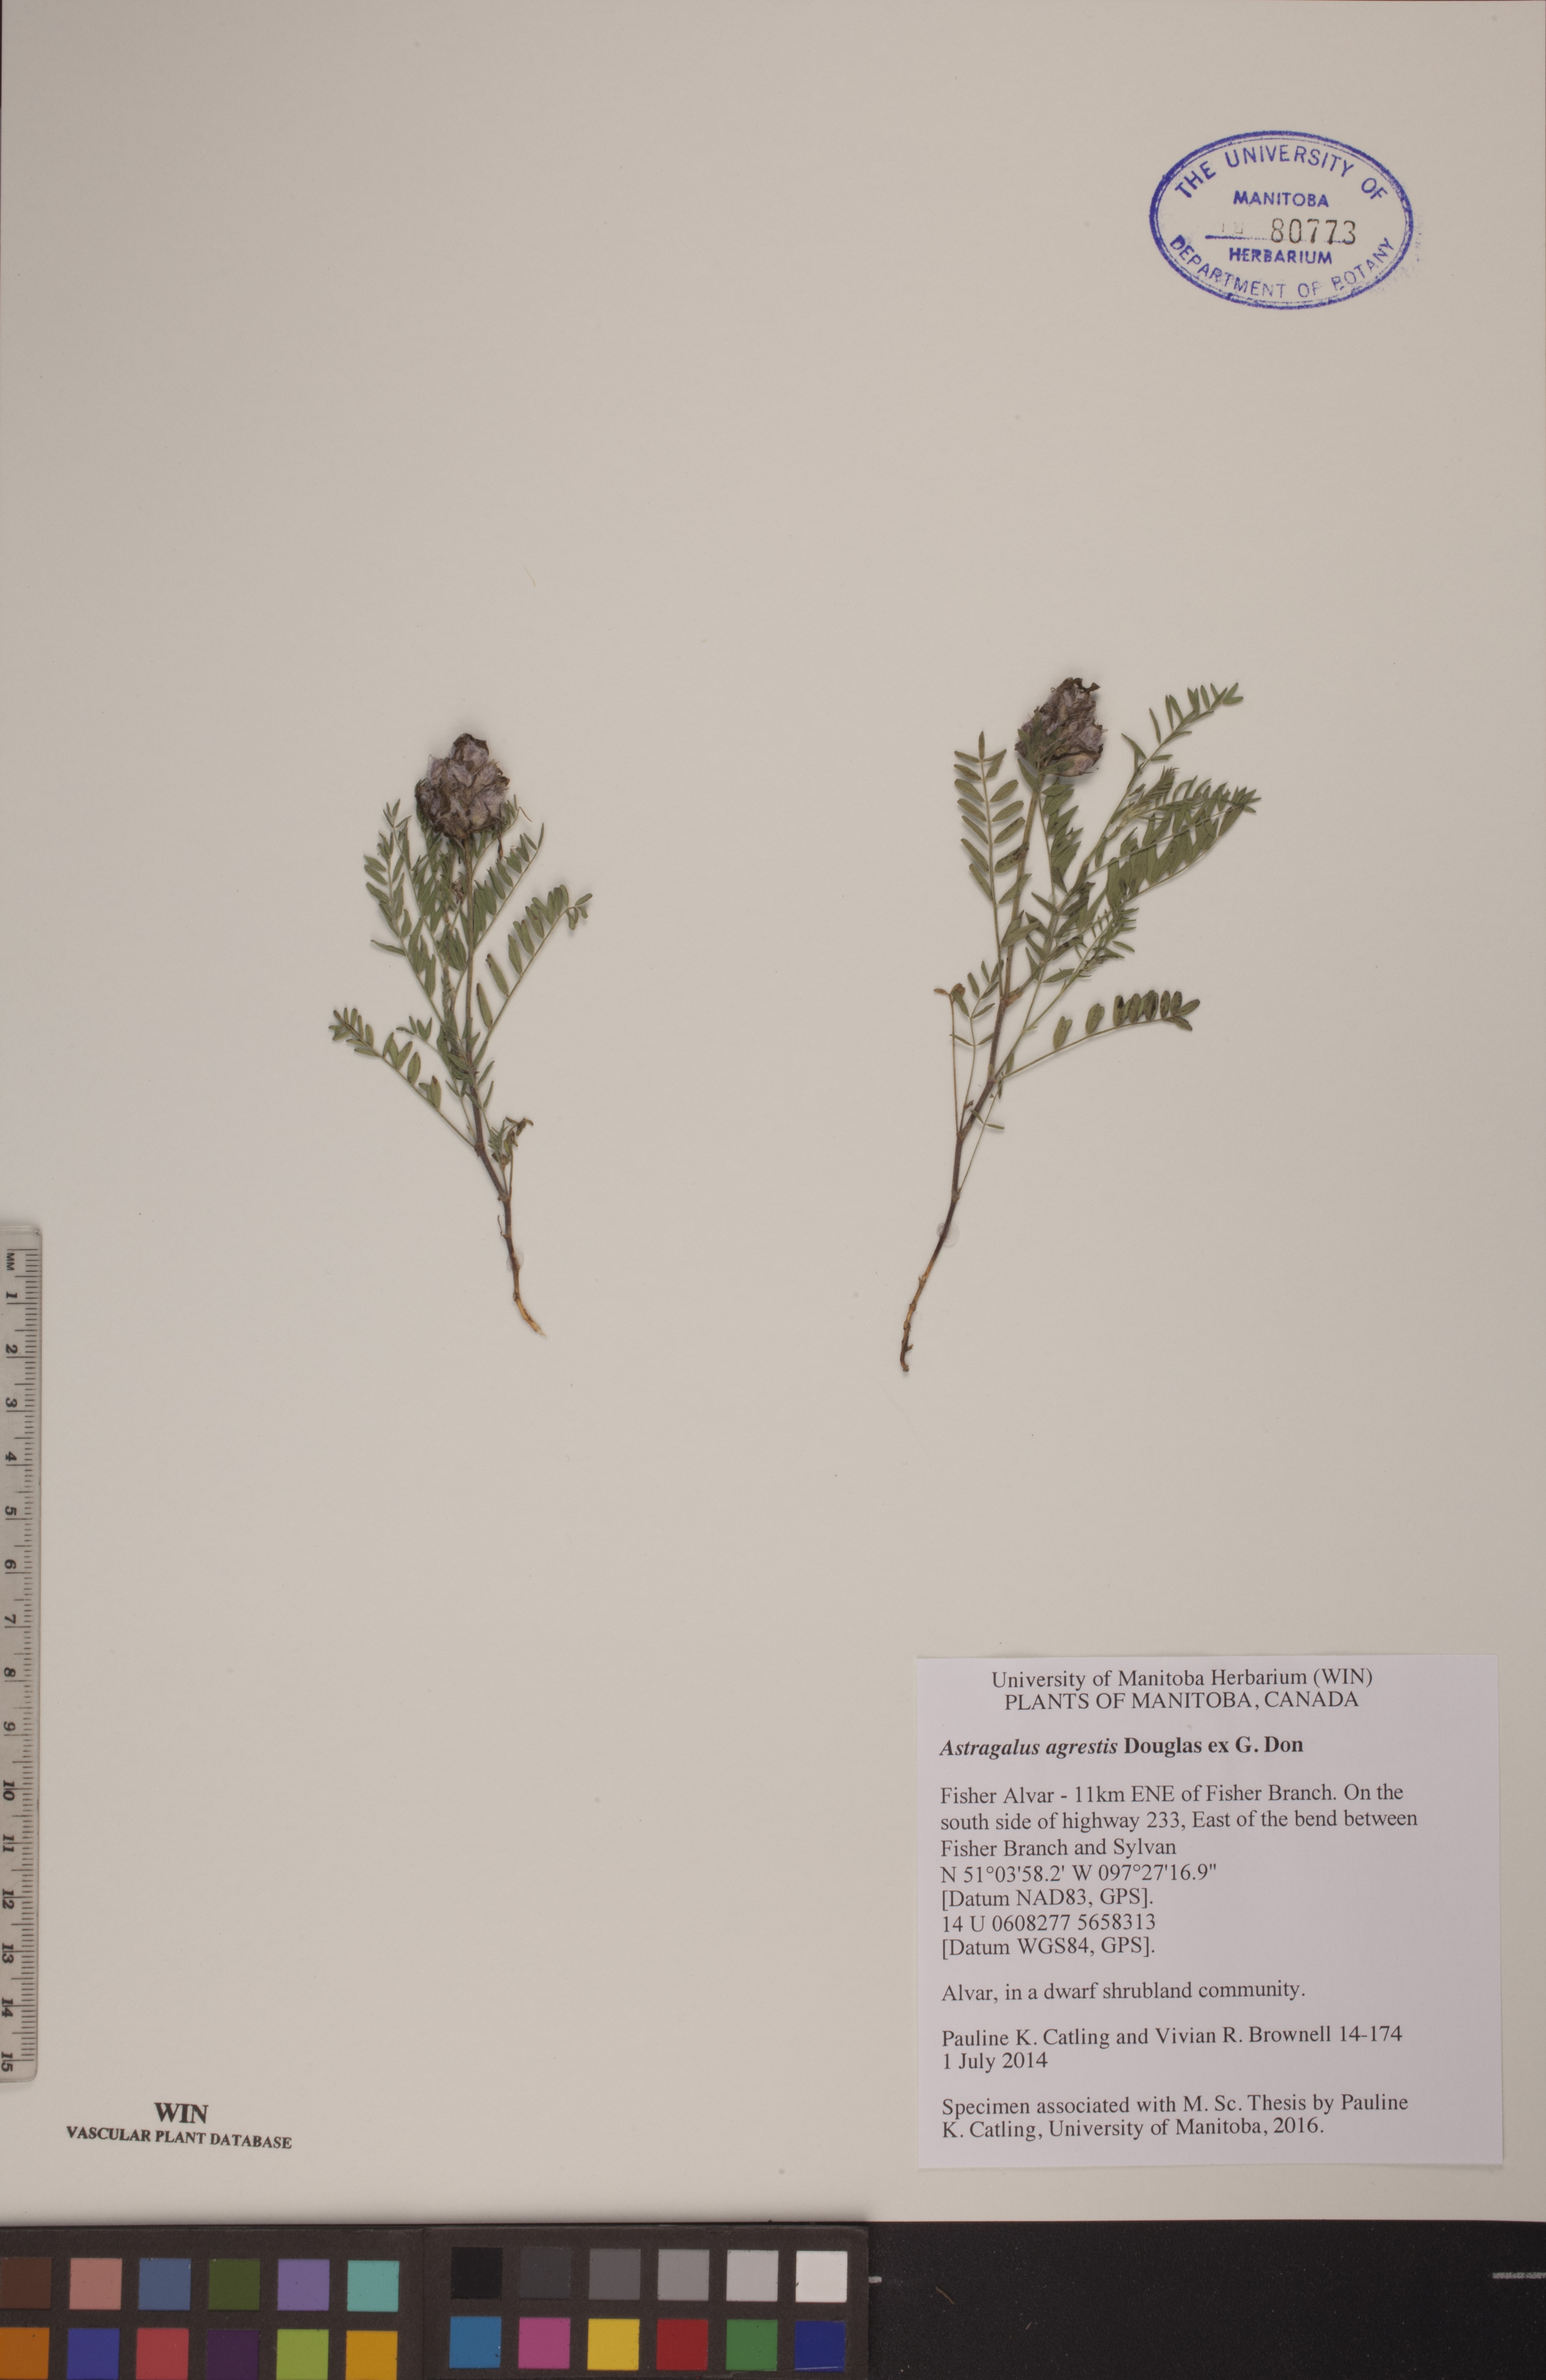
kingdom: Plantae
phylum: Tracheophyta
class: Magnoliopsida
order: Fabales
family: Fabaceae
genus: Astragalus
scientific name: Astragalus agrestis
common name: Field milk-vetch
